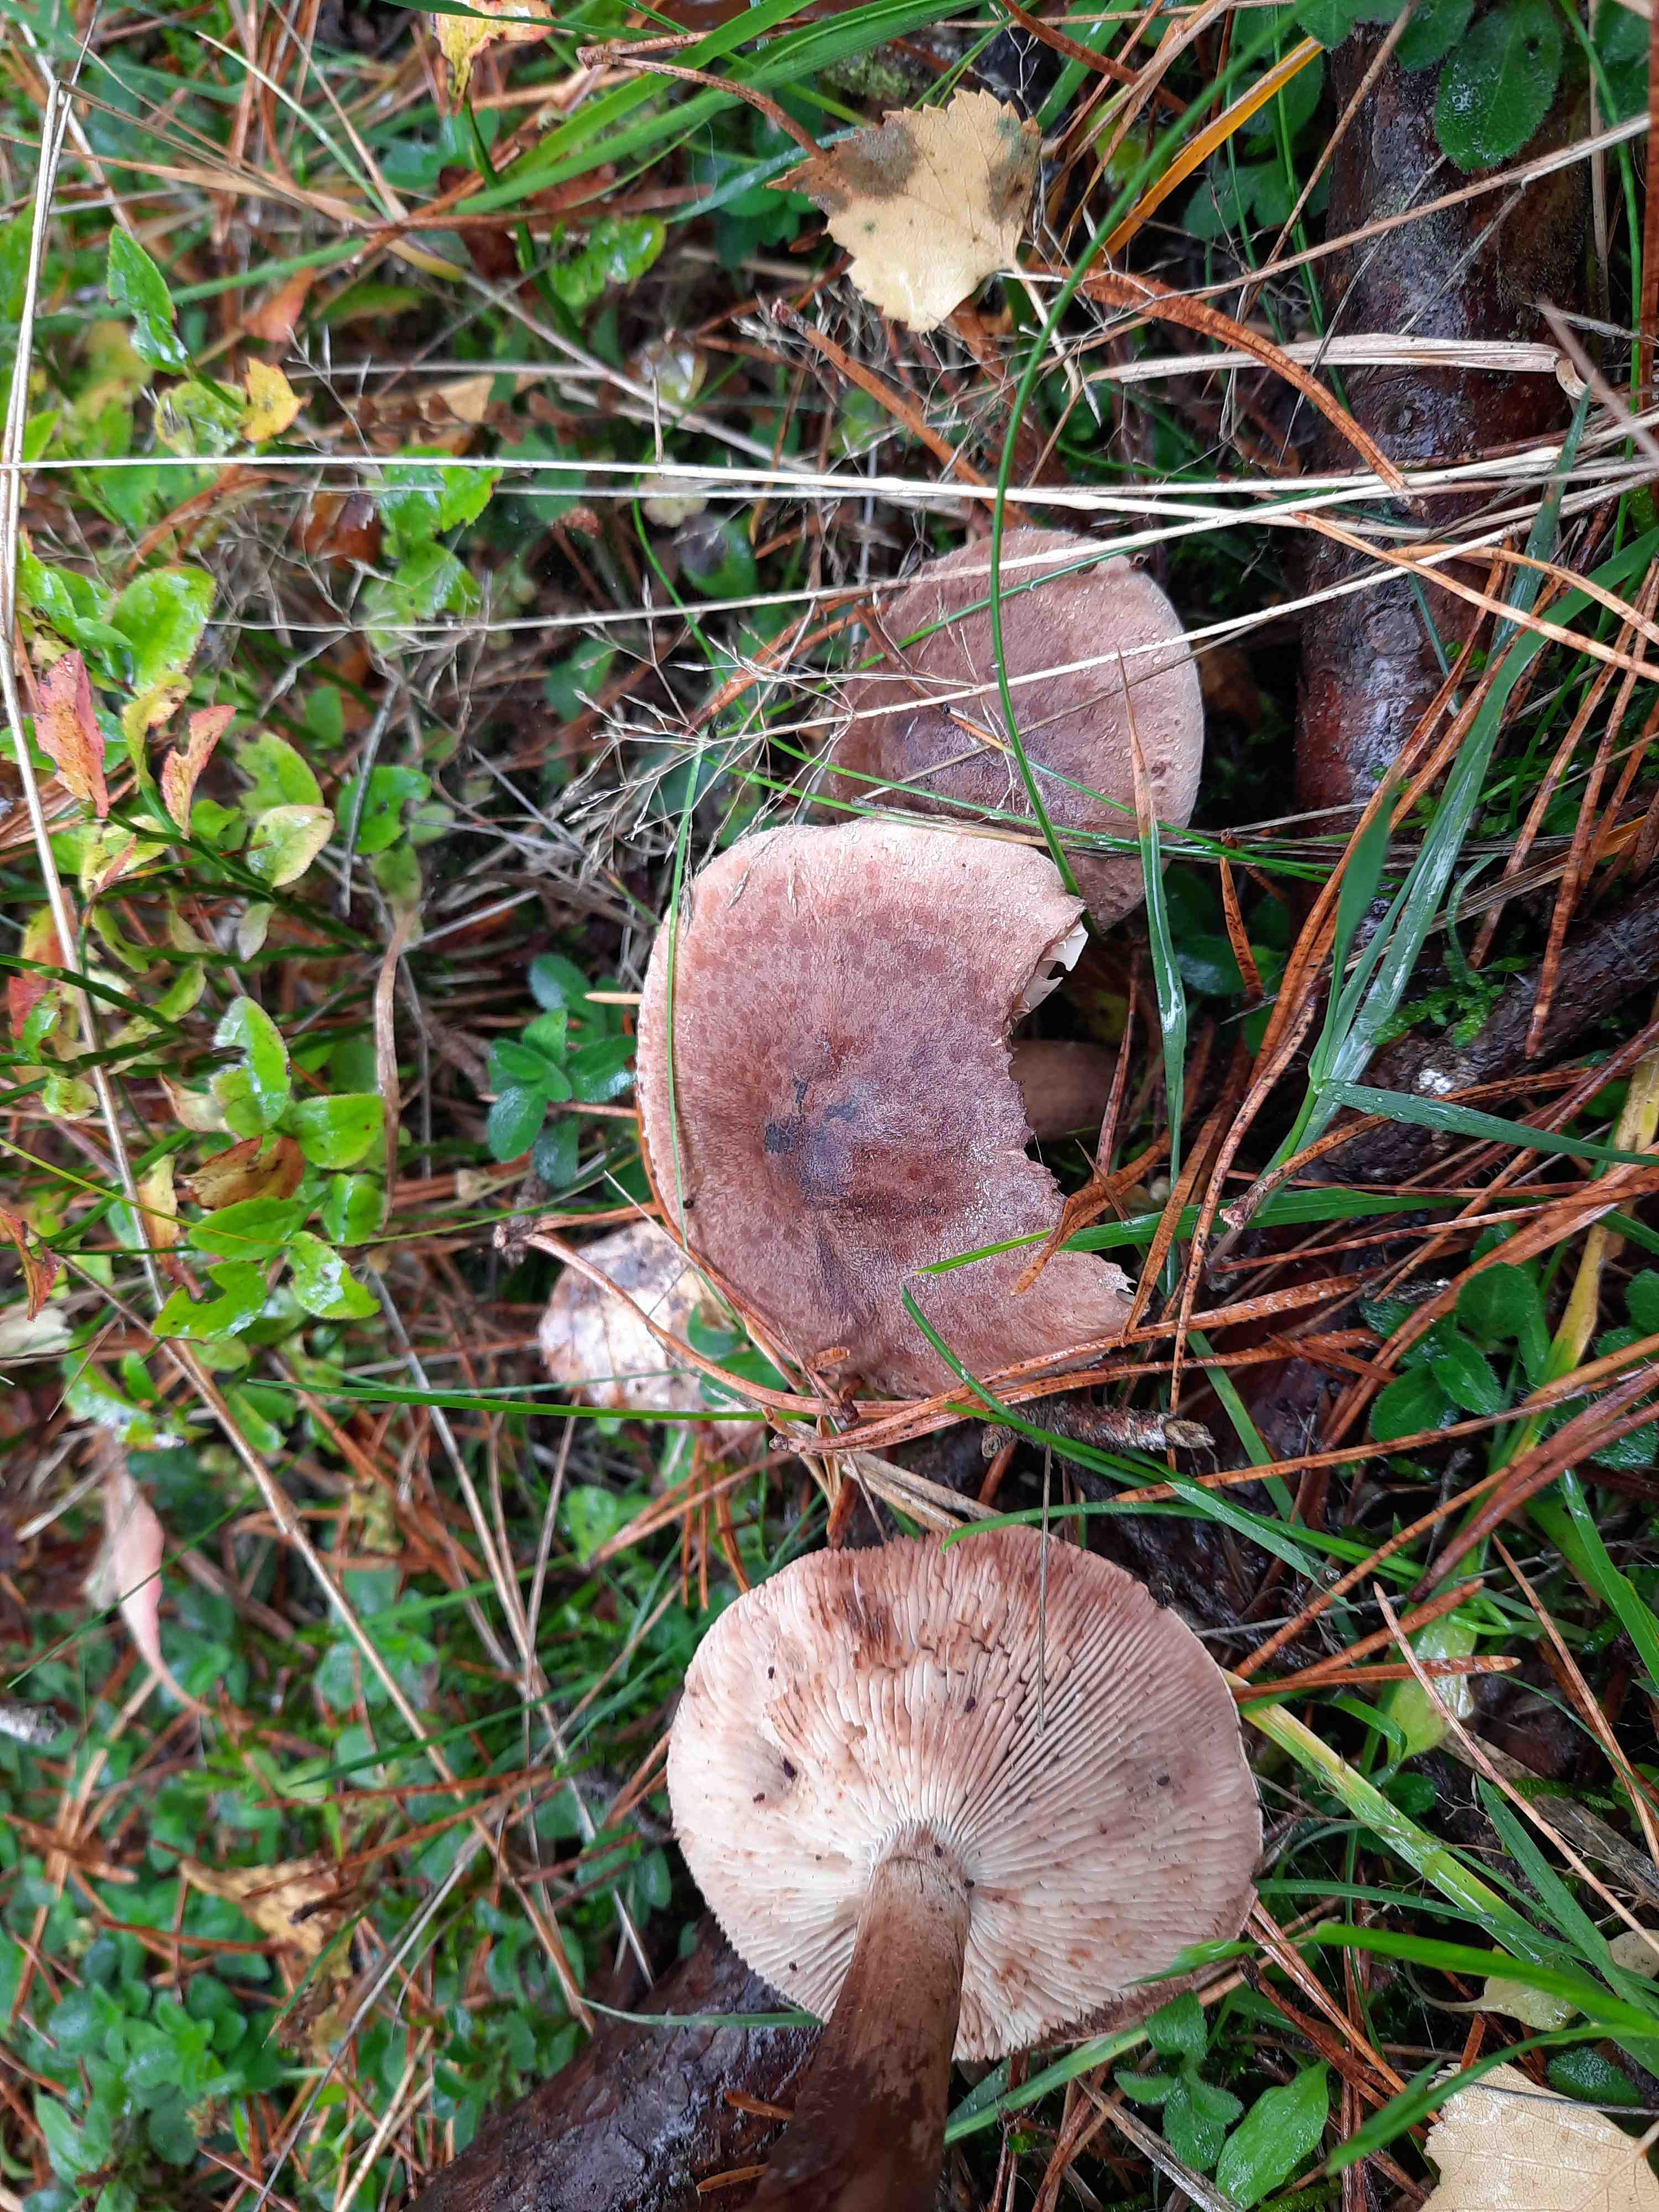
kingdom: Fungi
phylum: Basidiomycota
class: Agaricomycetes
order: Agaricales
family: Tricholomataceae
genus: Tricholoma
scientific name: Tricholoma imbricatum
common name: skællet ridderhat
